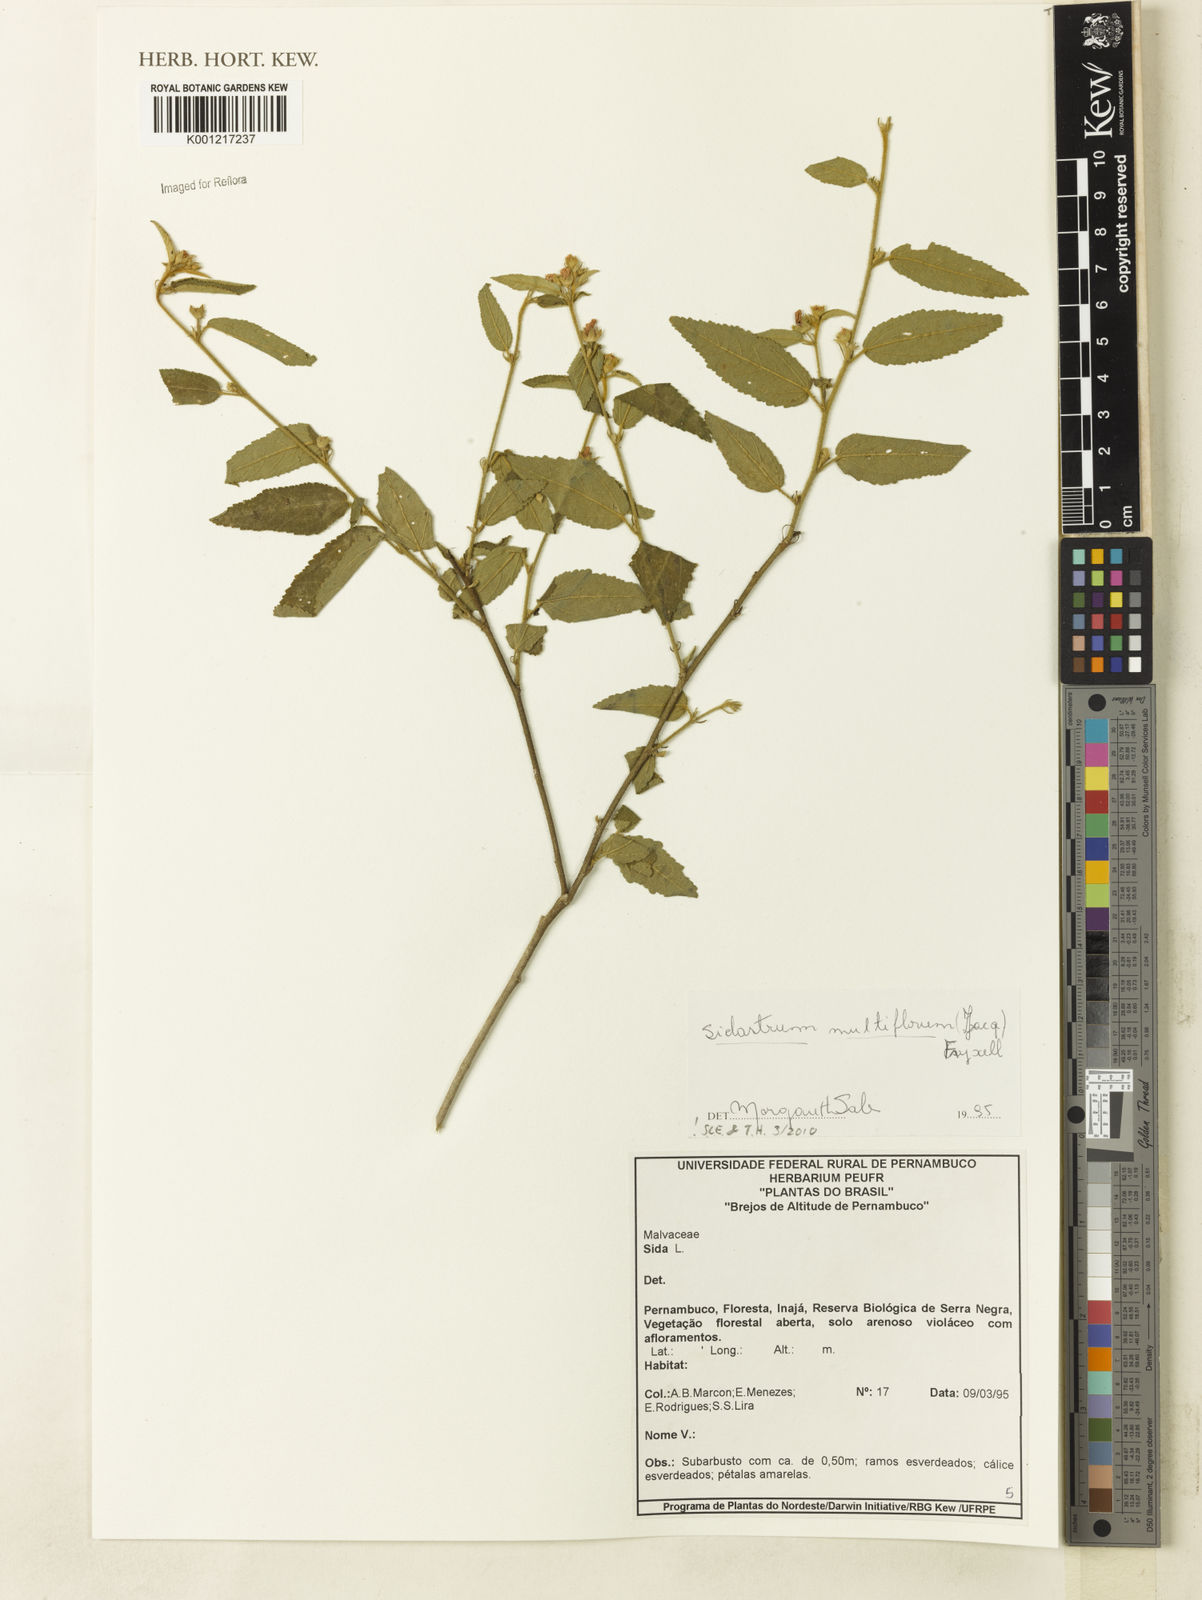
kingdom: Plantae
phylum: Tracheophyta
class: Magnoliopsida
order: Malvales
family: Malvaceae
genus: Sidastrum
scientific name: Sidastrum multiflorum
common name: Manyflower sandmallow
